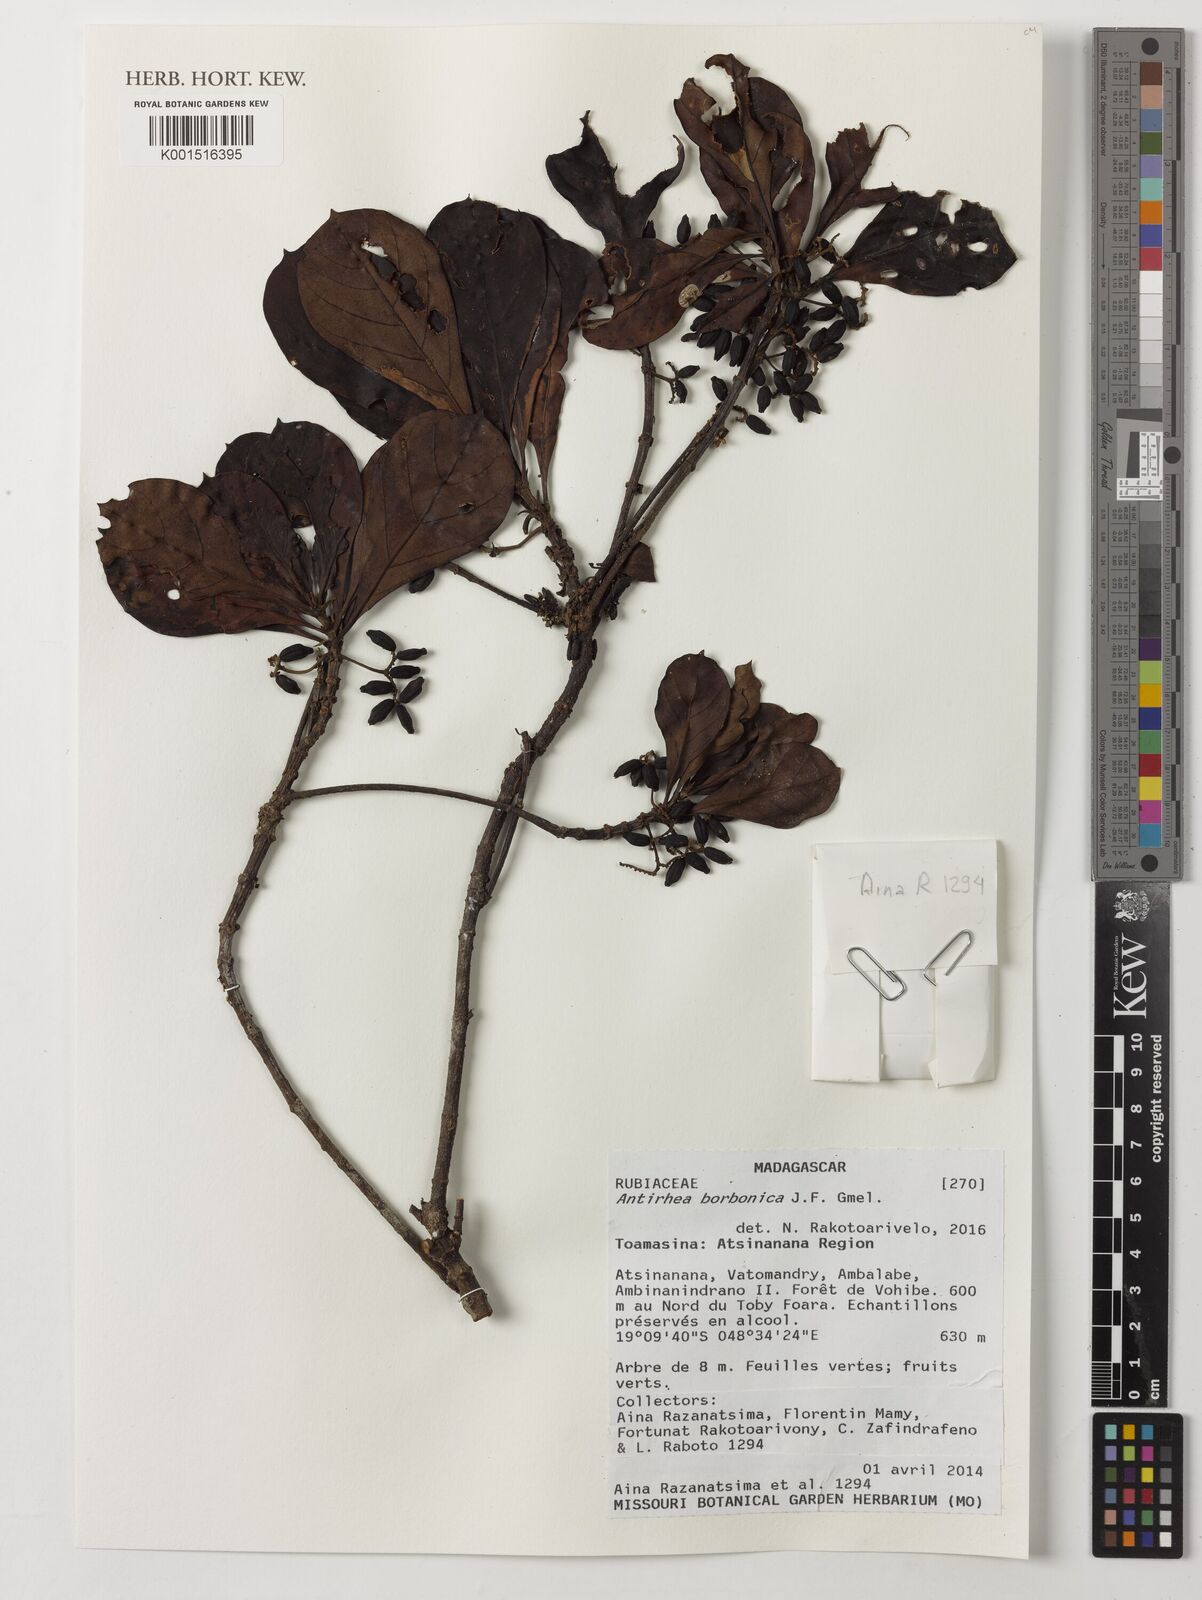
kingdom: Plantae
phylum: Tracheophyta
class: Magnoliopsida
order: Gentianales
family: Rubiaceae
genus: Antirhea
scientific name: Antirhea borbonica
